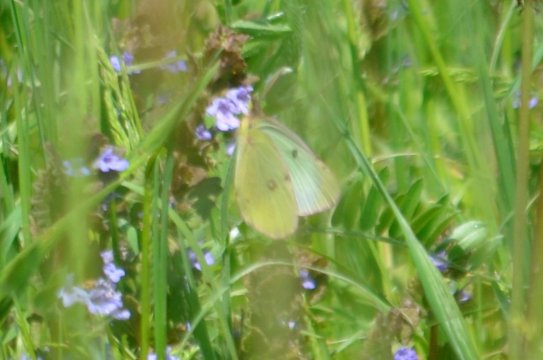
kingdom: Animalia
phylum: Arthropoda
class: Insecta
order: Lepidoptera
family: Pieridae
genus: Colias
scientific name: Colias philodice
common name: Clouded Sulphur
